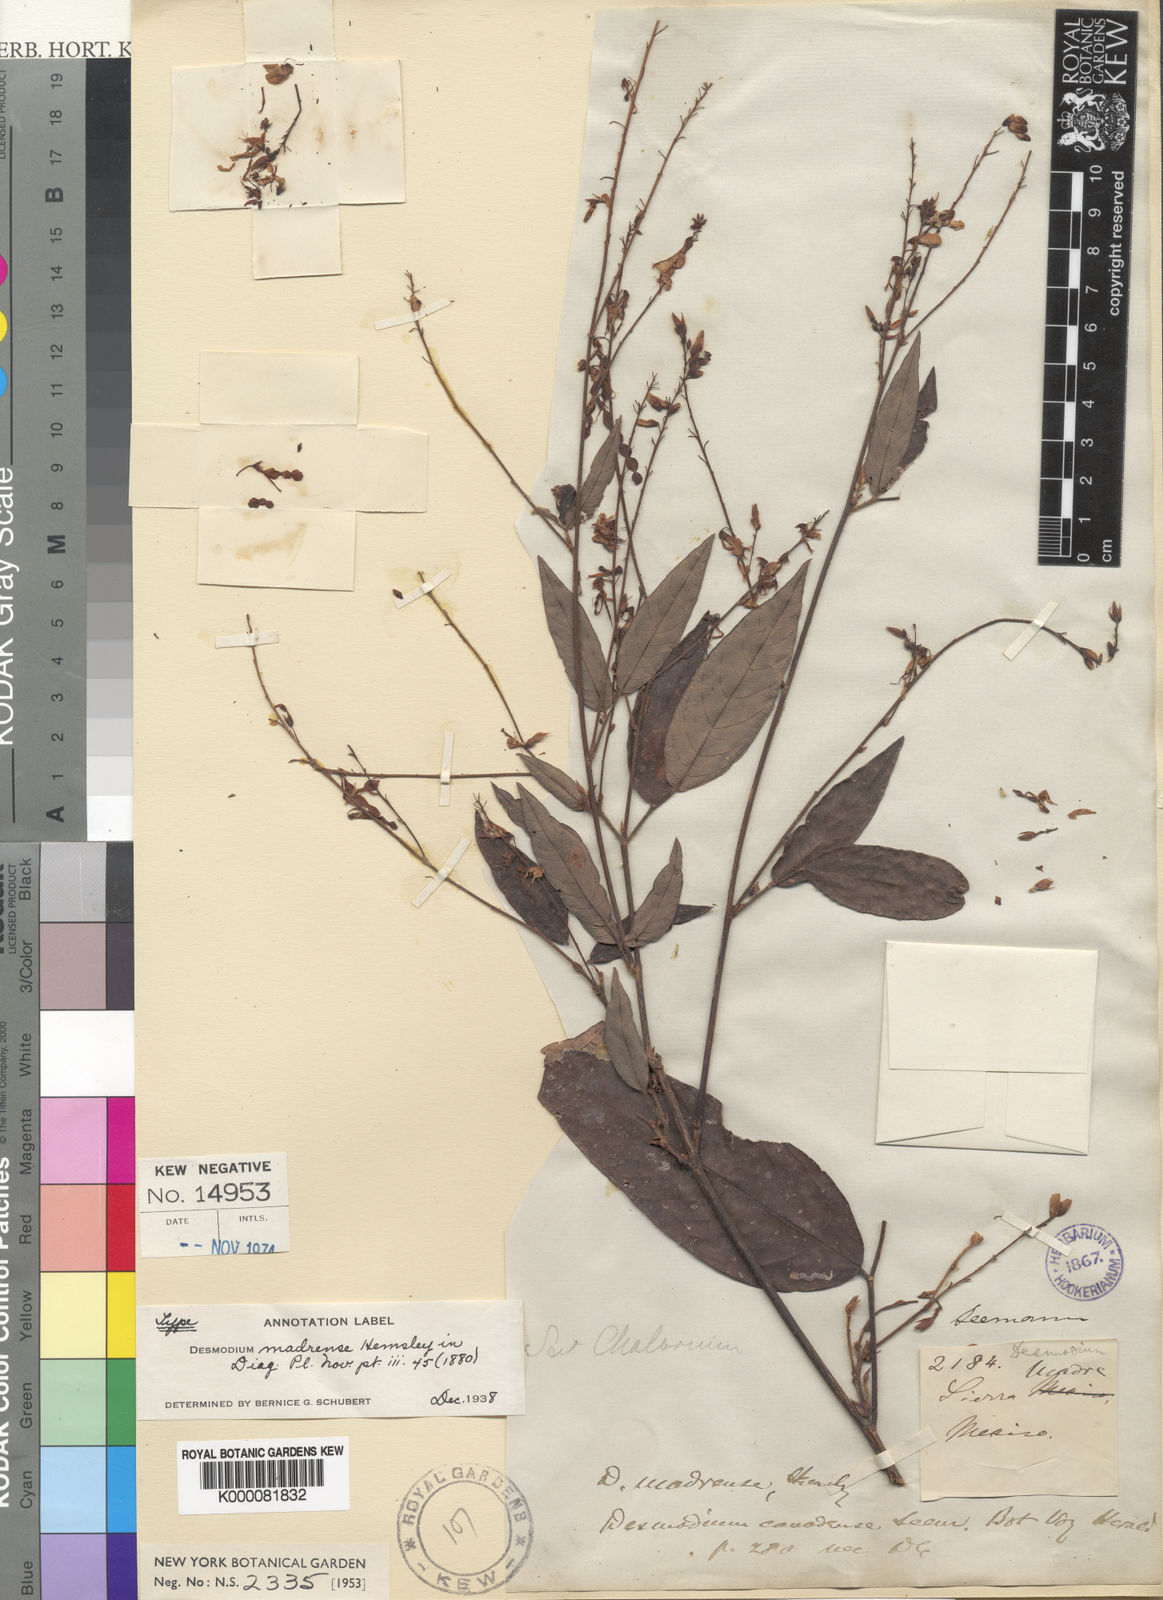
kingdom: Plantae
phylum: Tracheophyta
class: Magnoliopsida
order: Fabales
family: Fabaceae
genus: Desmodium
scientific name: Desmodium madrense
